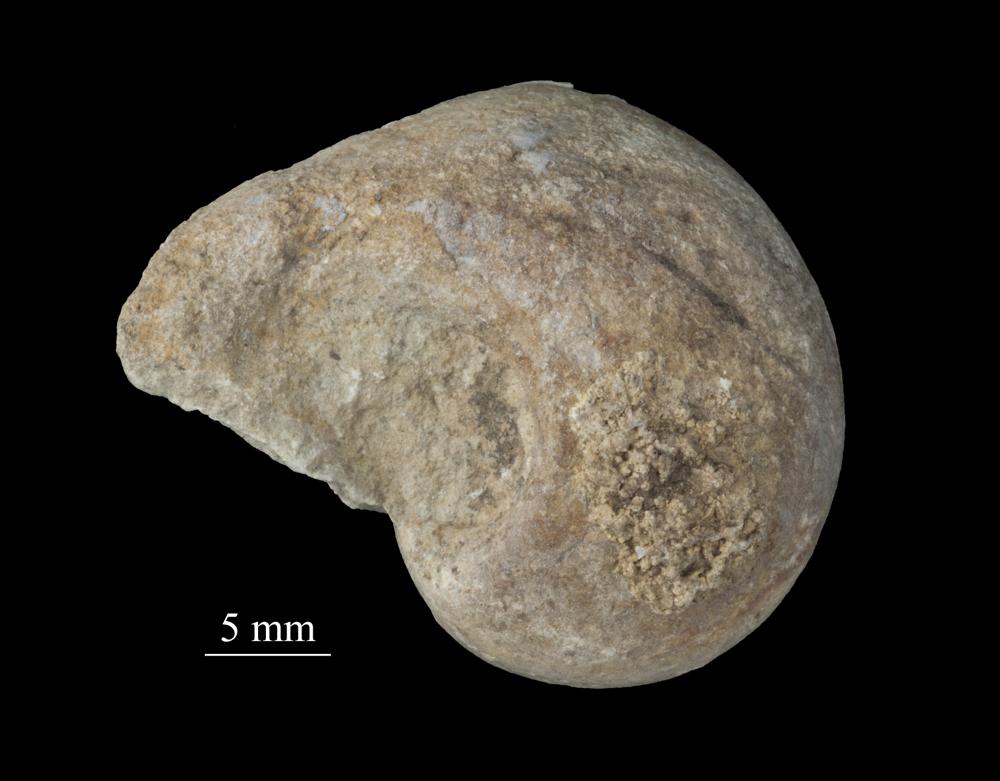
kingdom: Animalia
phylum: Mollusca
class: Gastropoda
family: Bellerophontidae
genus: Bellerophon
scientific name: Bellerophon
